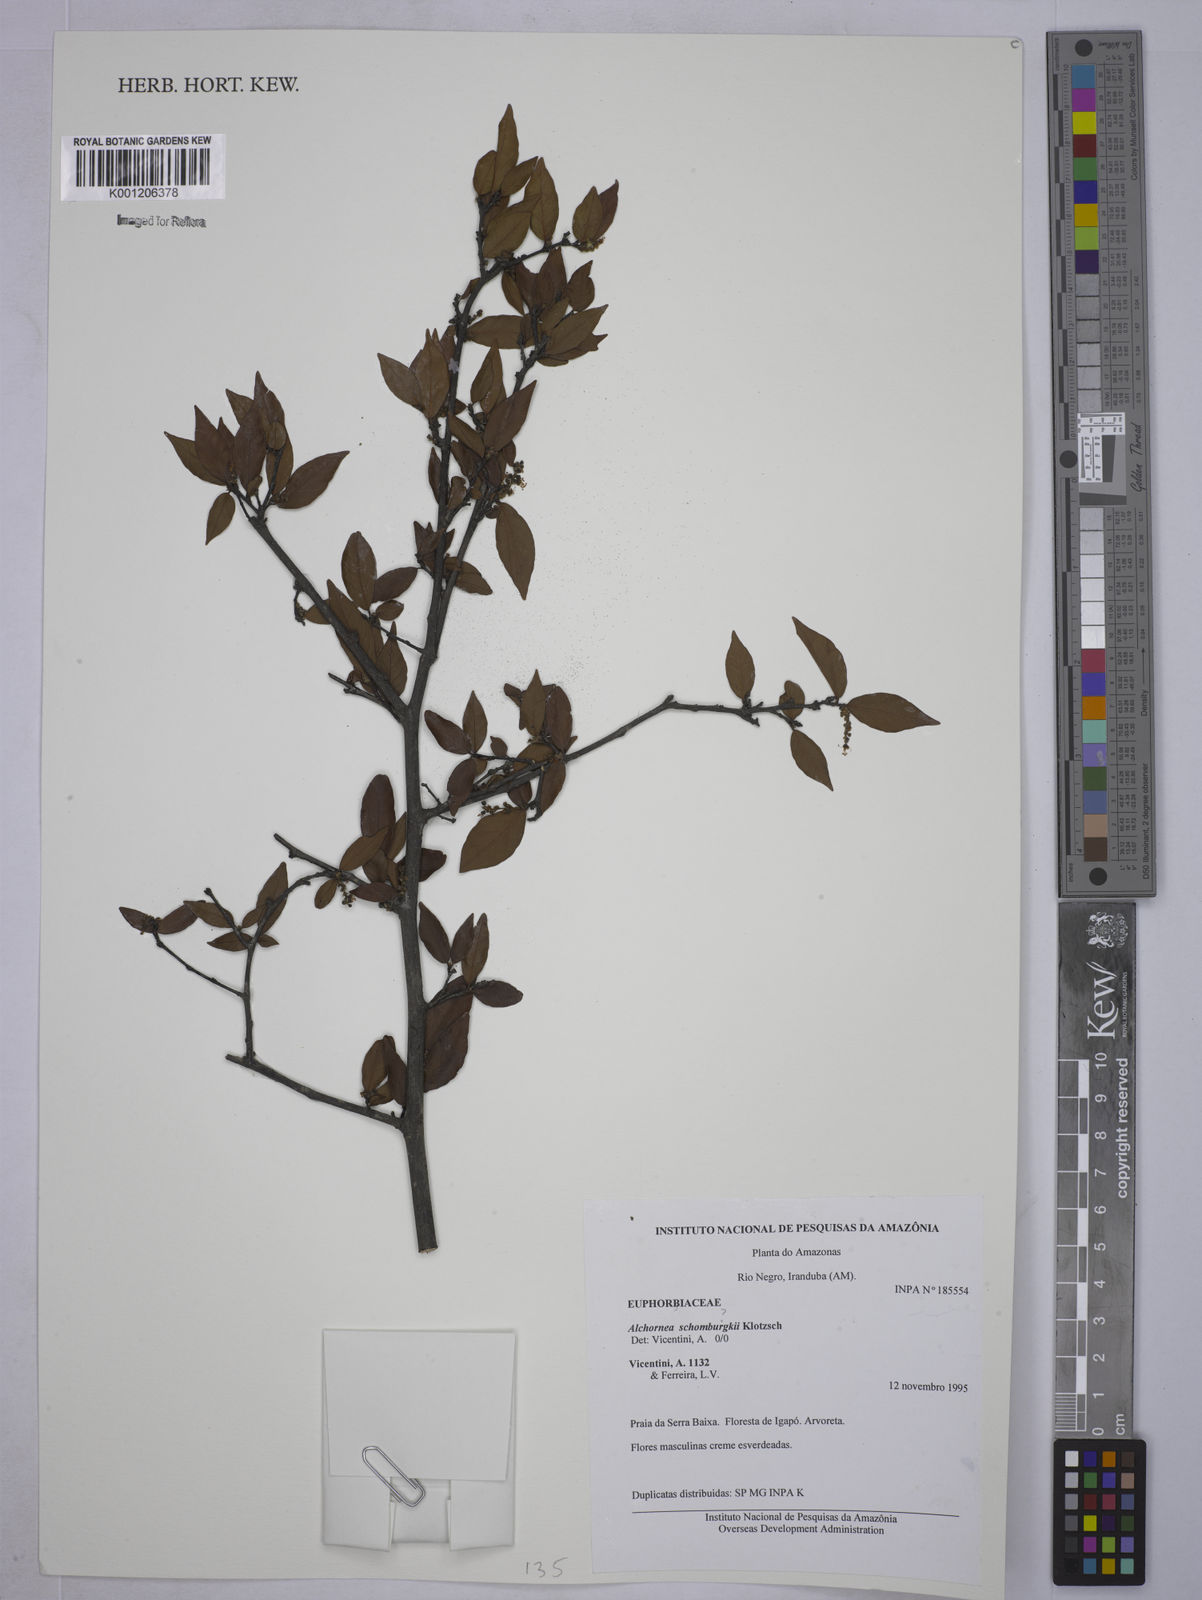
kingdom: Plantae
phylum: Tracheophyta
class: Magnoliopsida
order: Malpighiales
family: Euphorbiaceae
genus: Alchornea
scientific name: Alchornea
